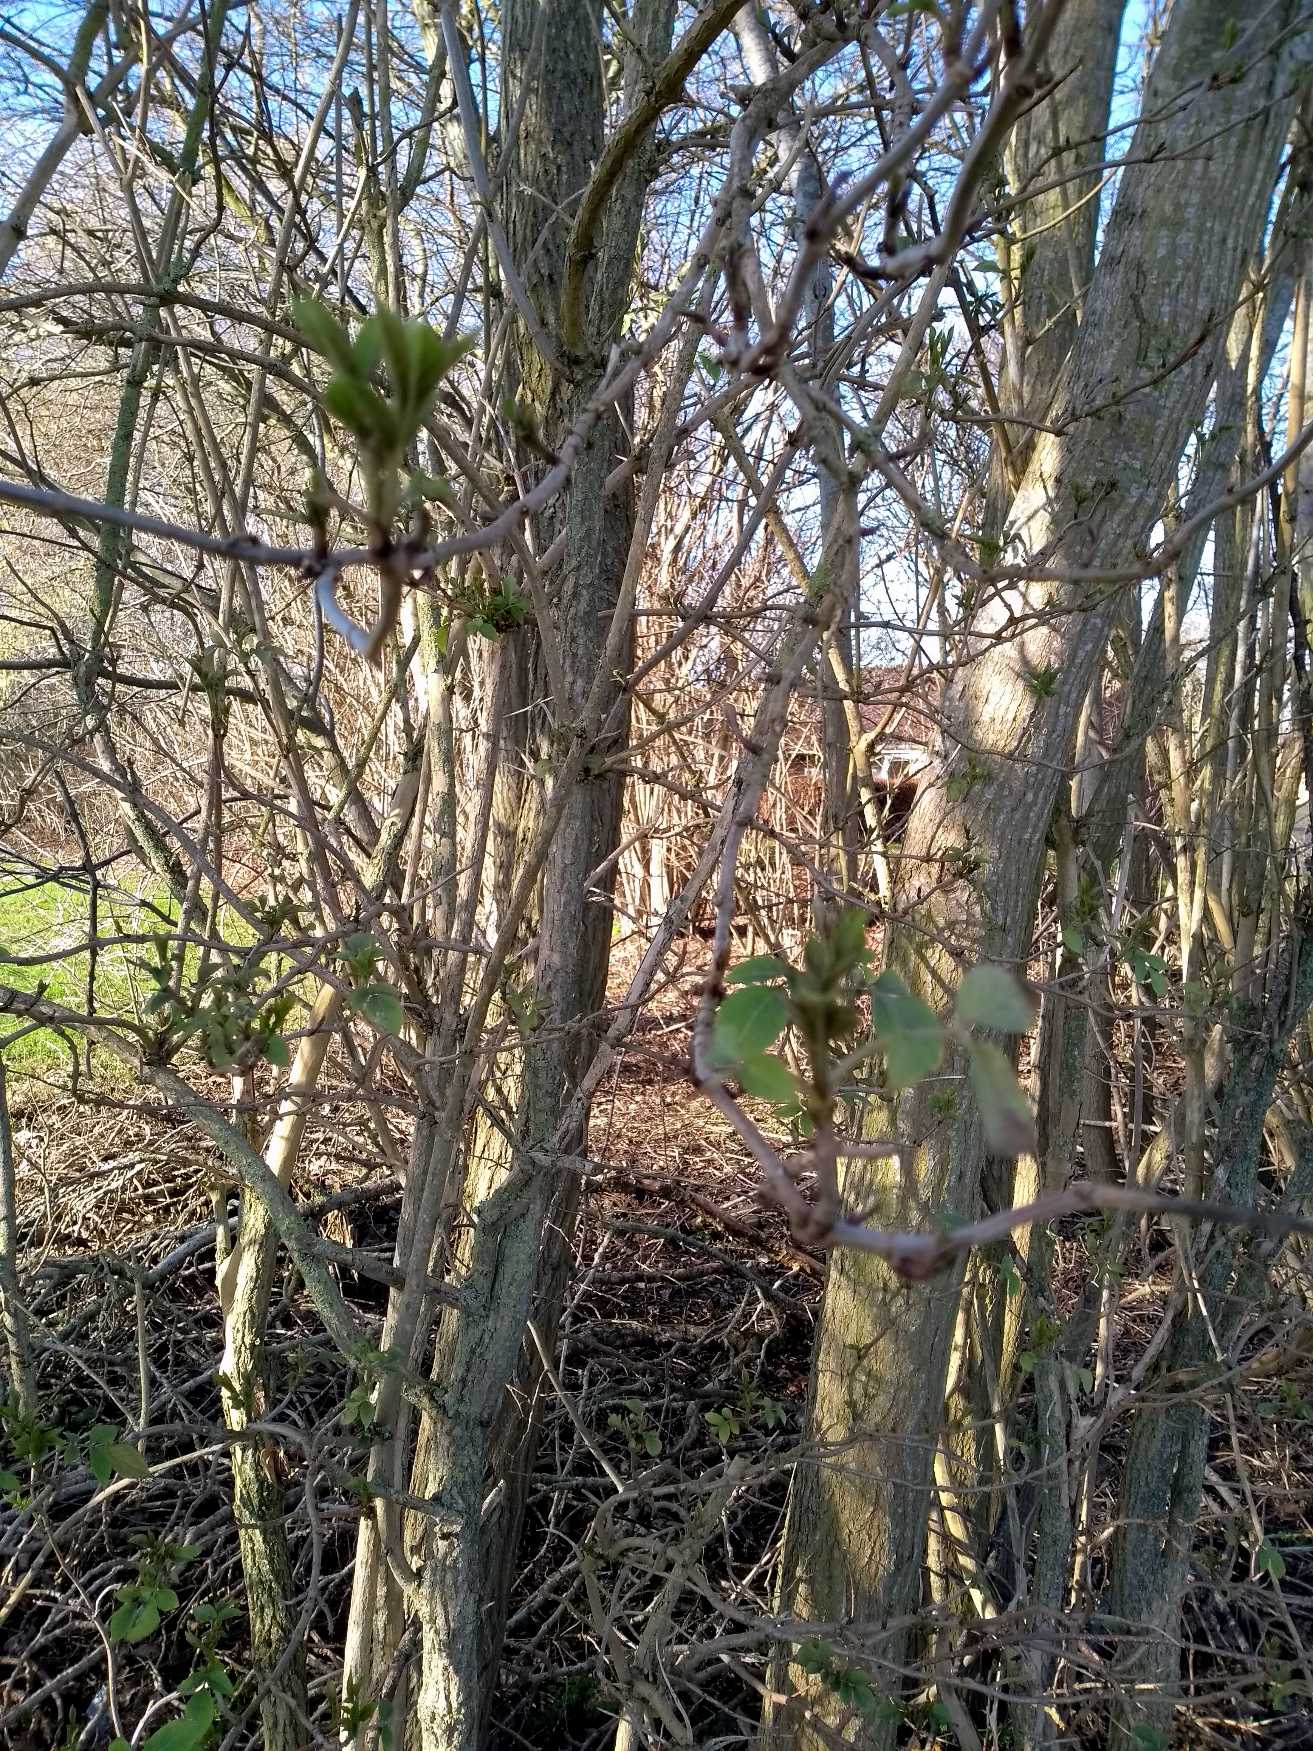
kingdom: Plantae
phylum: Tracheophyta
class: Magnoliopsida
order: Dipsacales
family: Viburnaceae
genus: Sambucus
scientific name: Sambucus nigra
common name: Almindelig hyld
